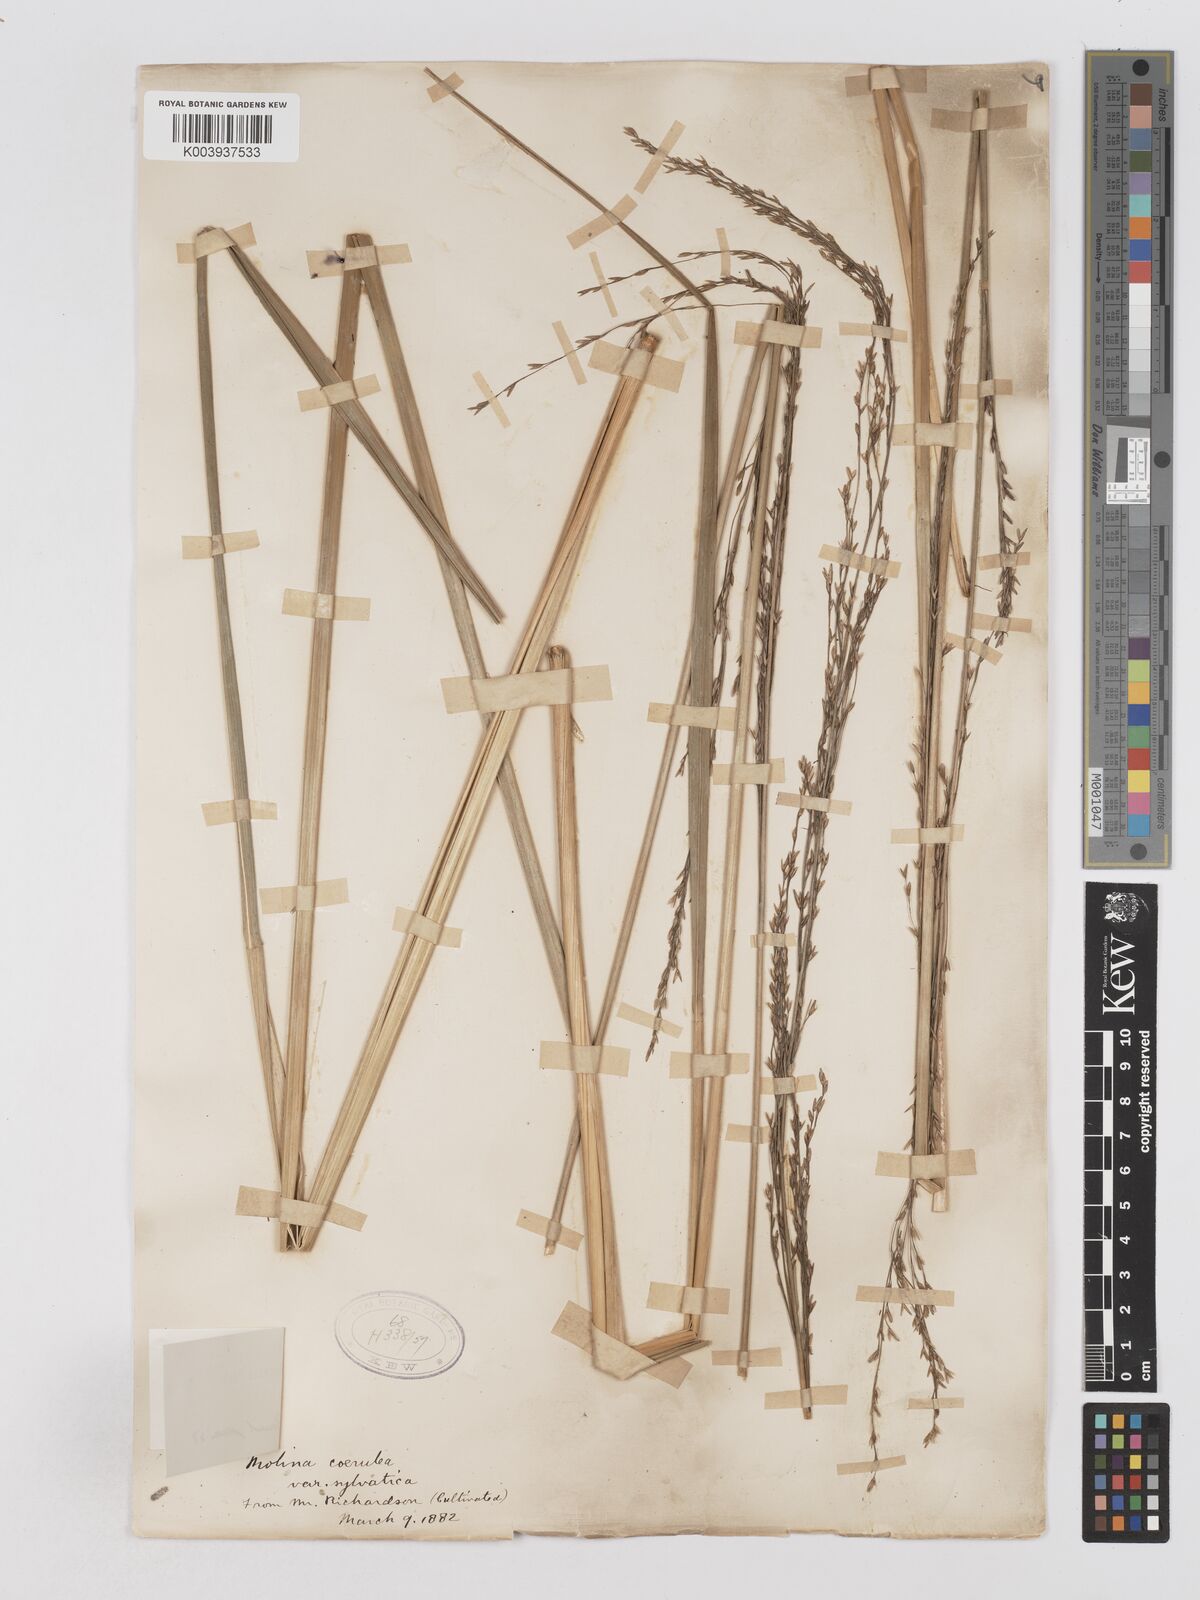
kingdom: Plantae
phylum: Tracheophyta
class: Liliopsida
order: Poales
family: Poaceae
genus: Molinia
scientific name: Molinia caerulea
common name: Purple moor-grass
